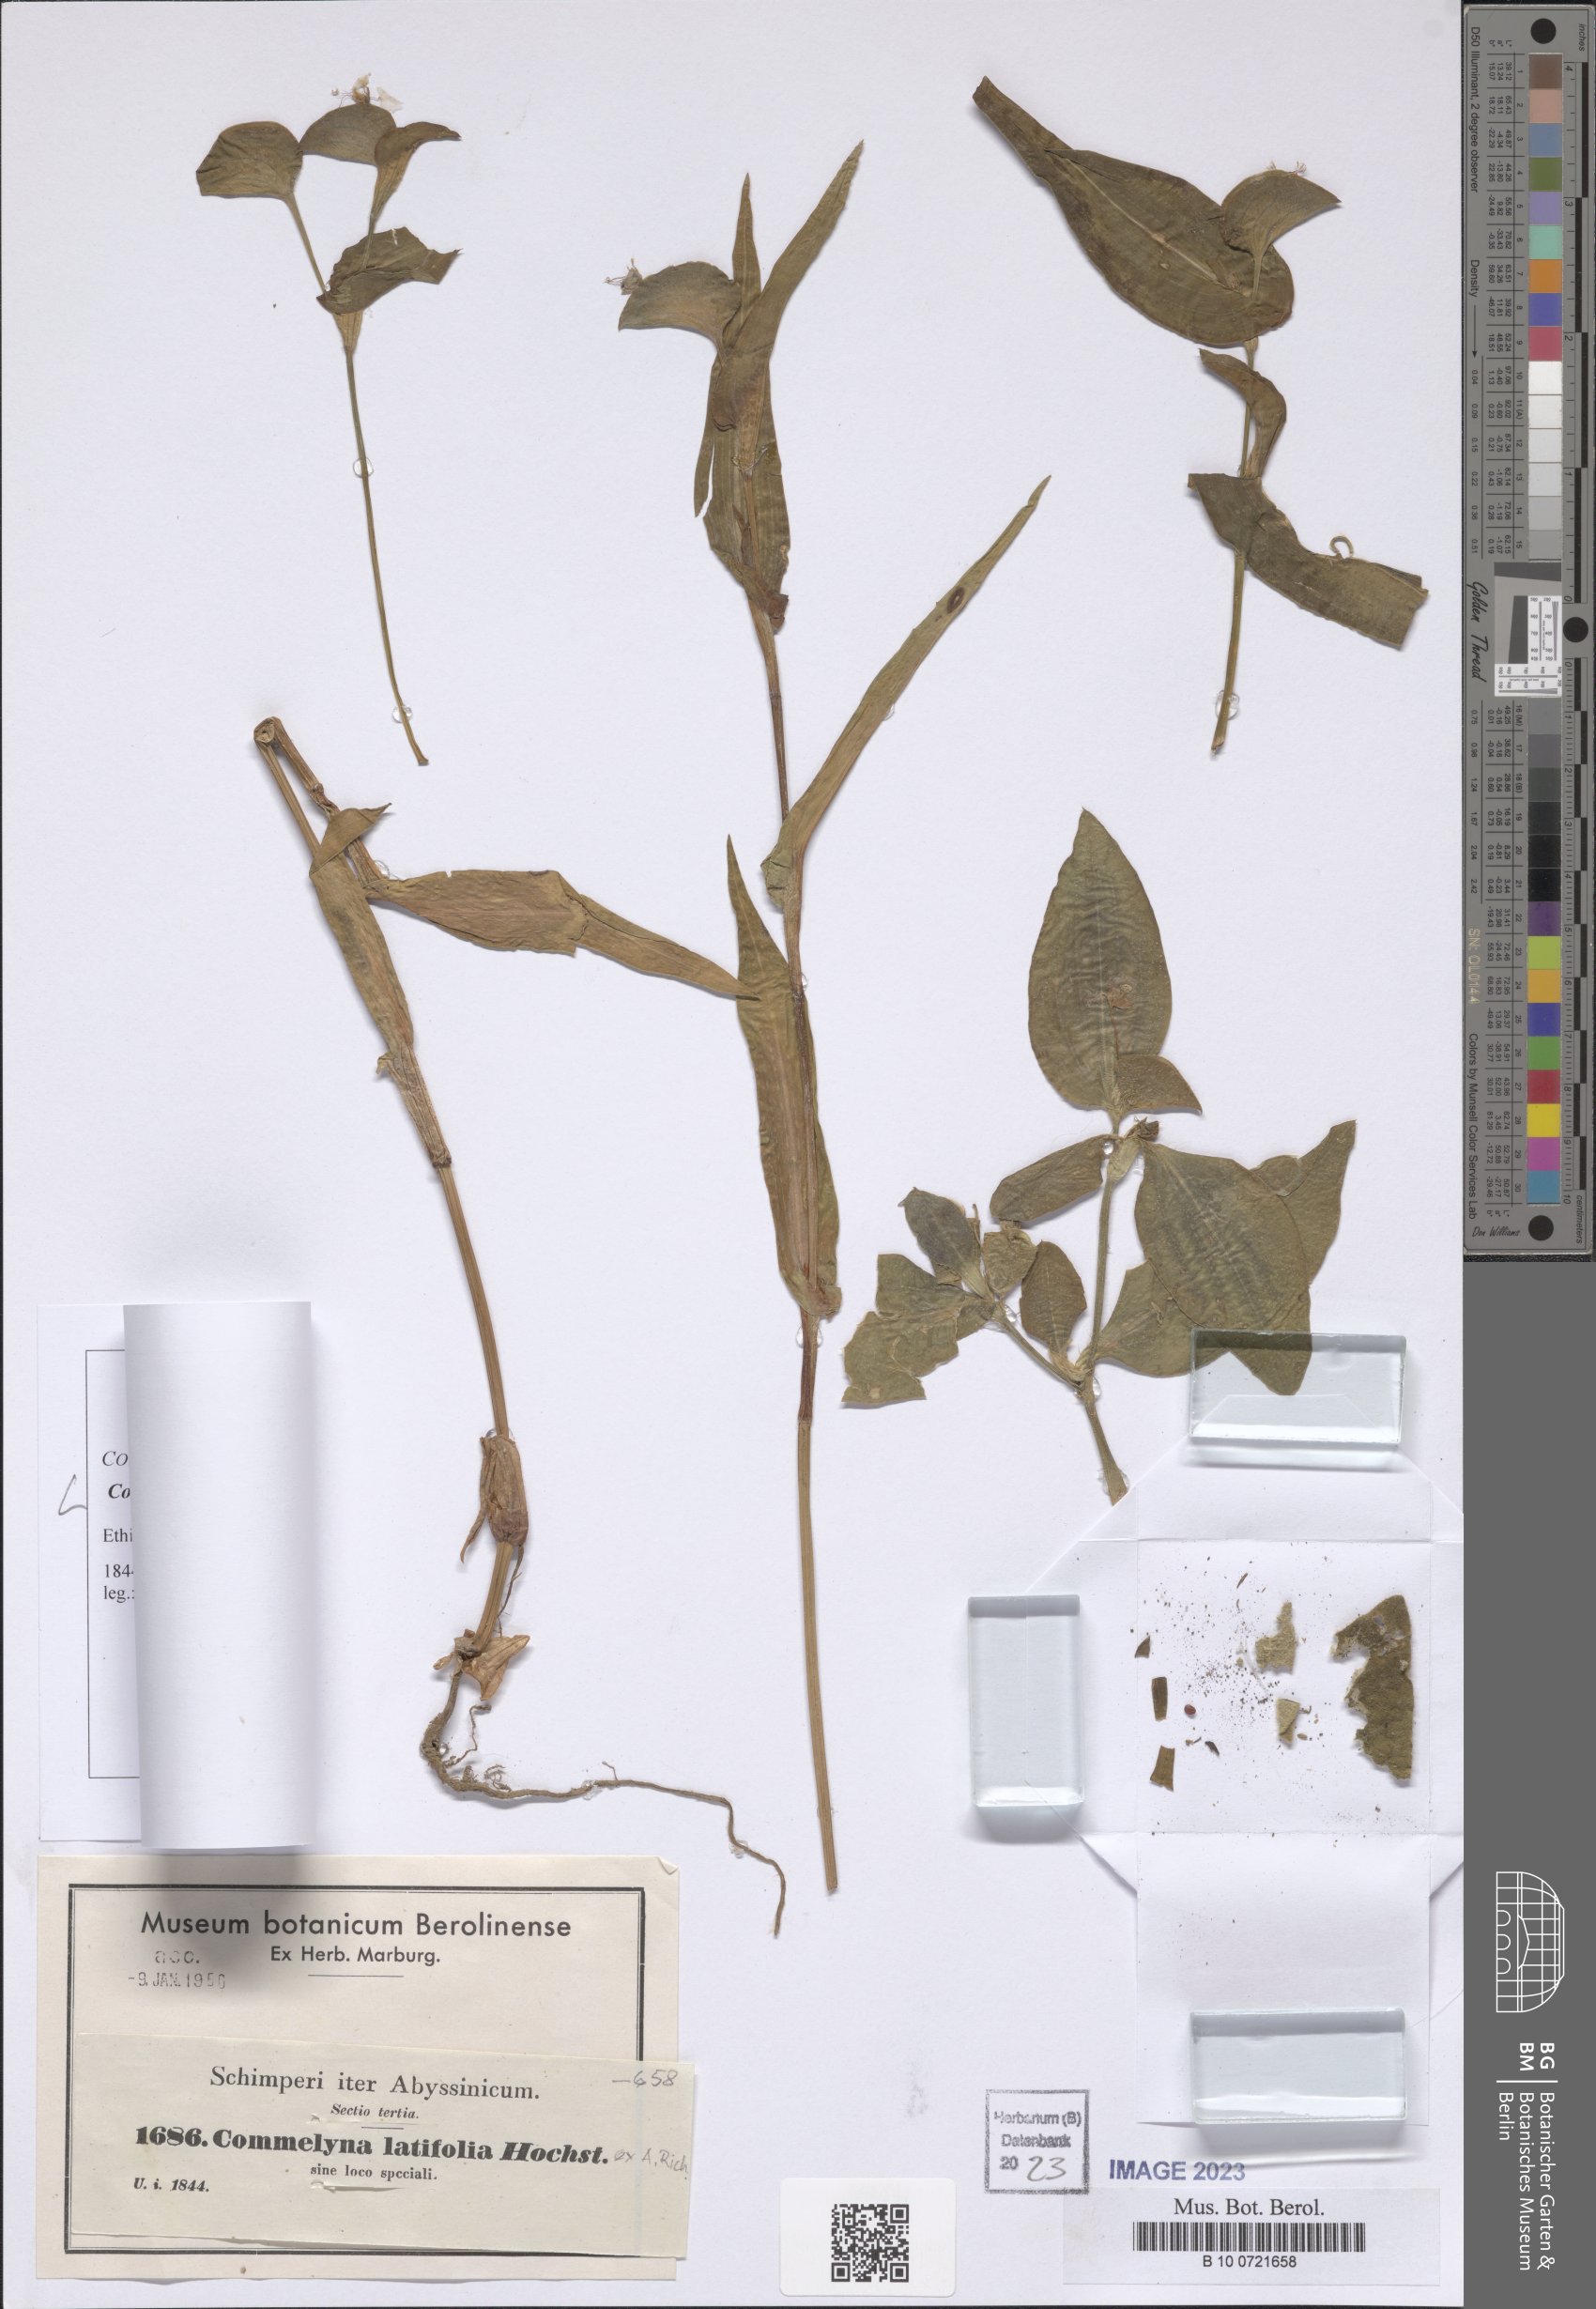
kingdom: Plantae
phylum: Tracheophyta
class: Liliopsida
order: Commelinales
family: Commelinaceae
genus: Commelina
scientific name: Commelina latifolia
